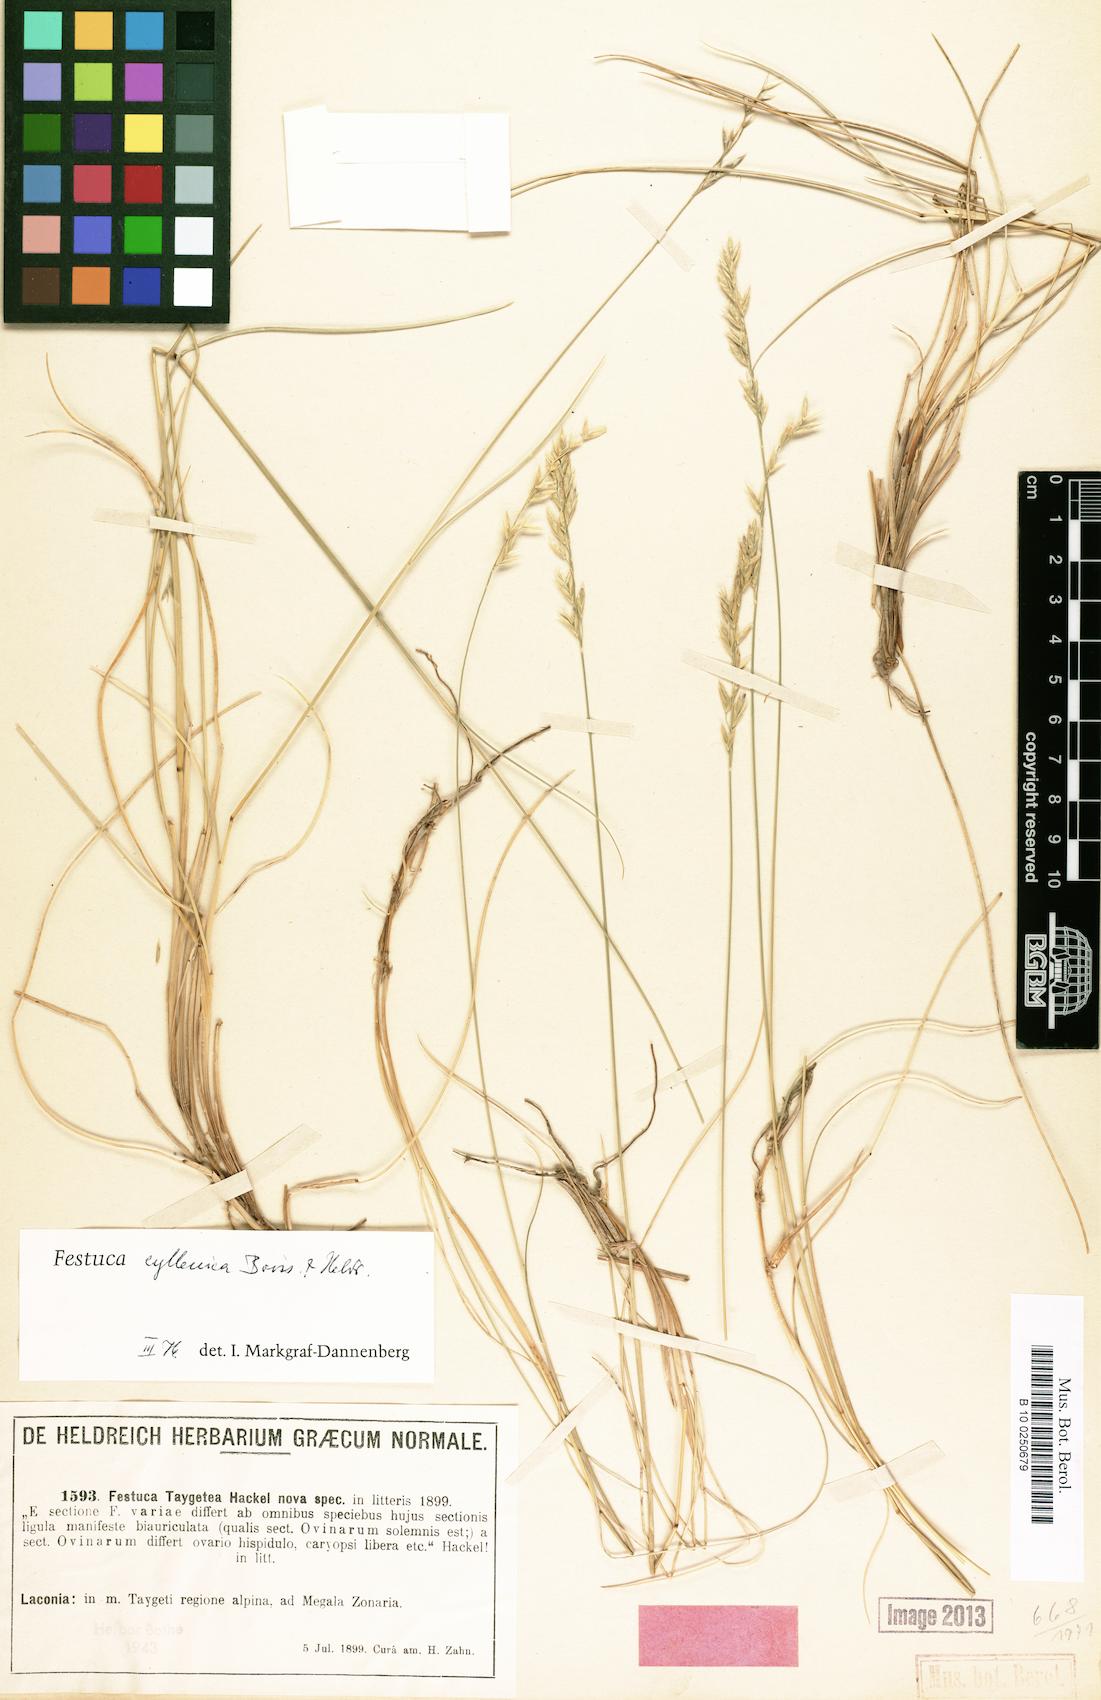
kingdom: Plantae
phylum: Tracheophyta
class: Liliopsida
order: Poales
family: Poaceae
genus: Festuca
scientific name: Festuca vaginata
